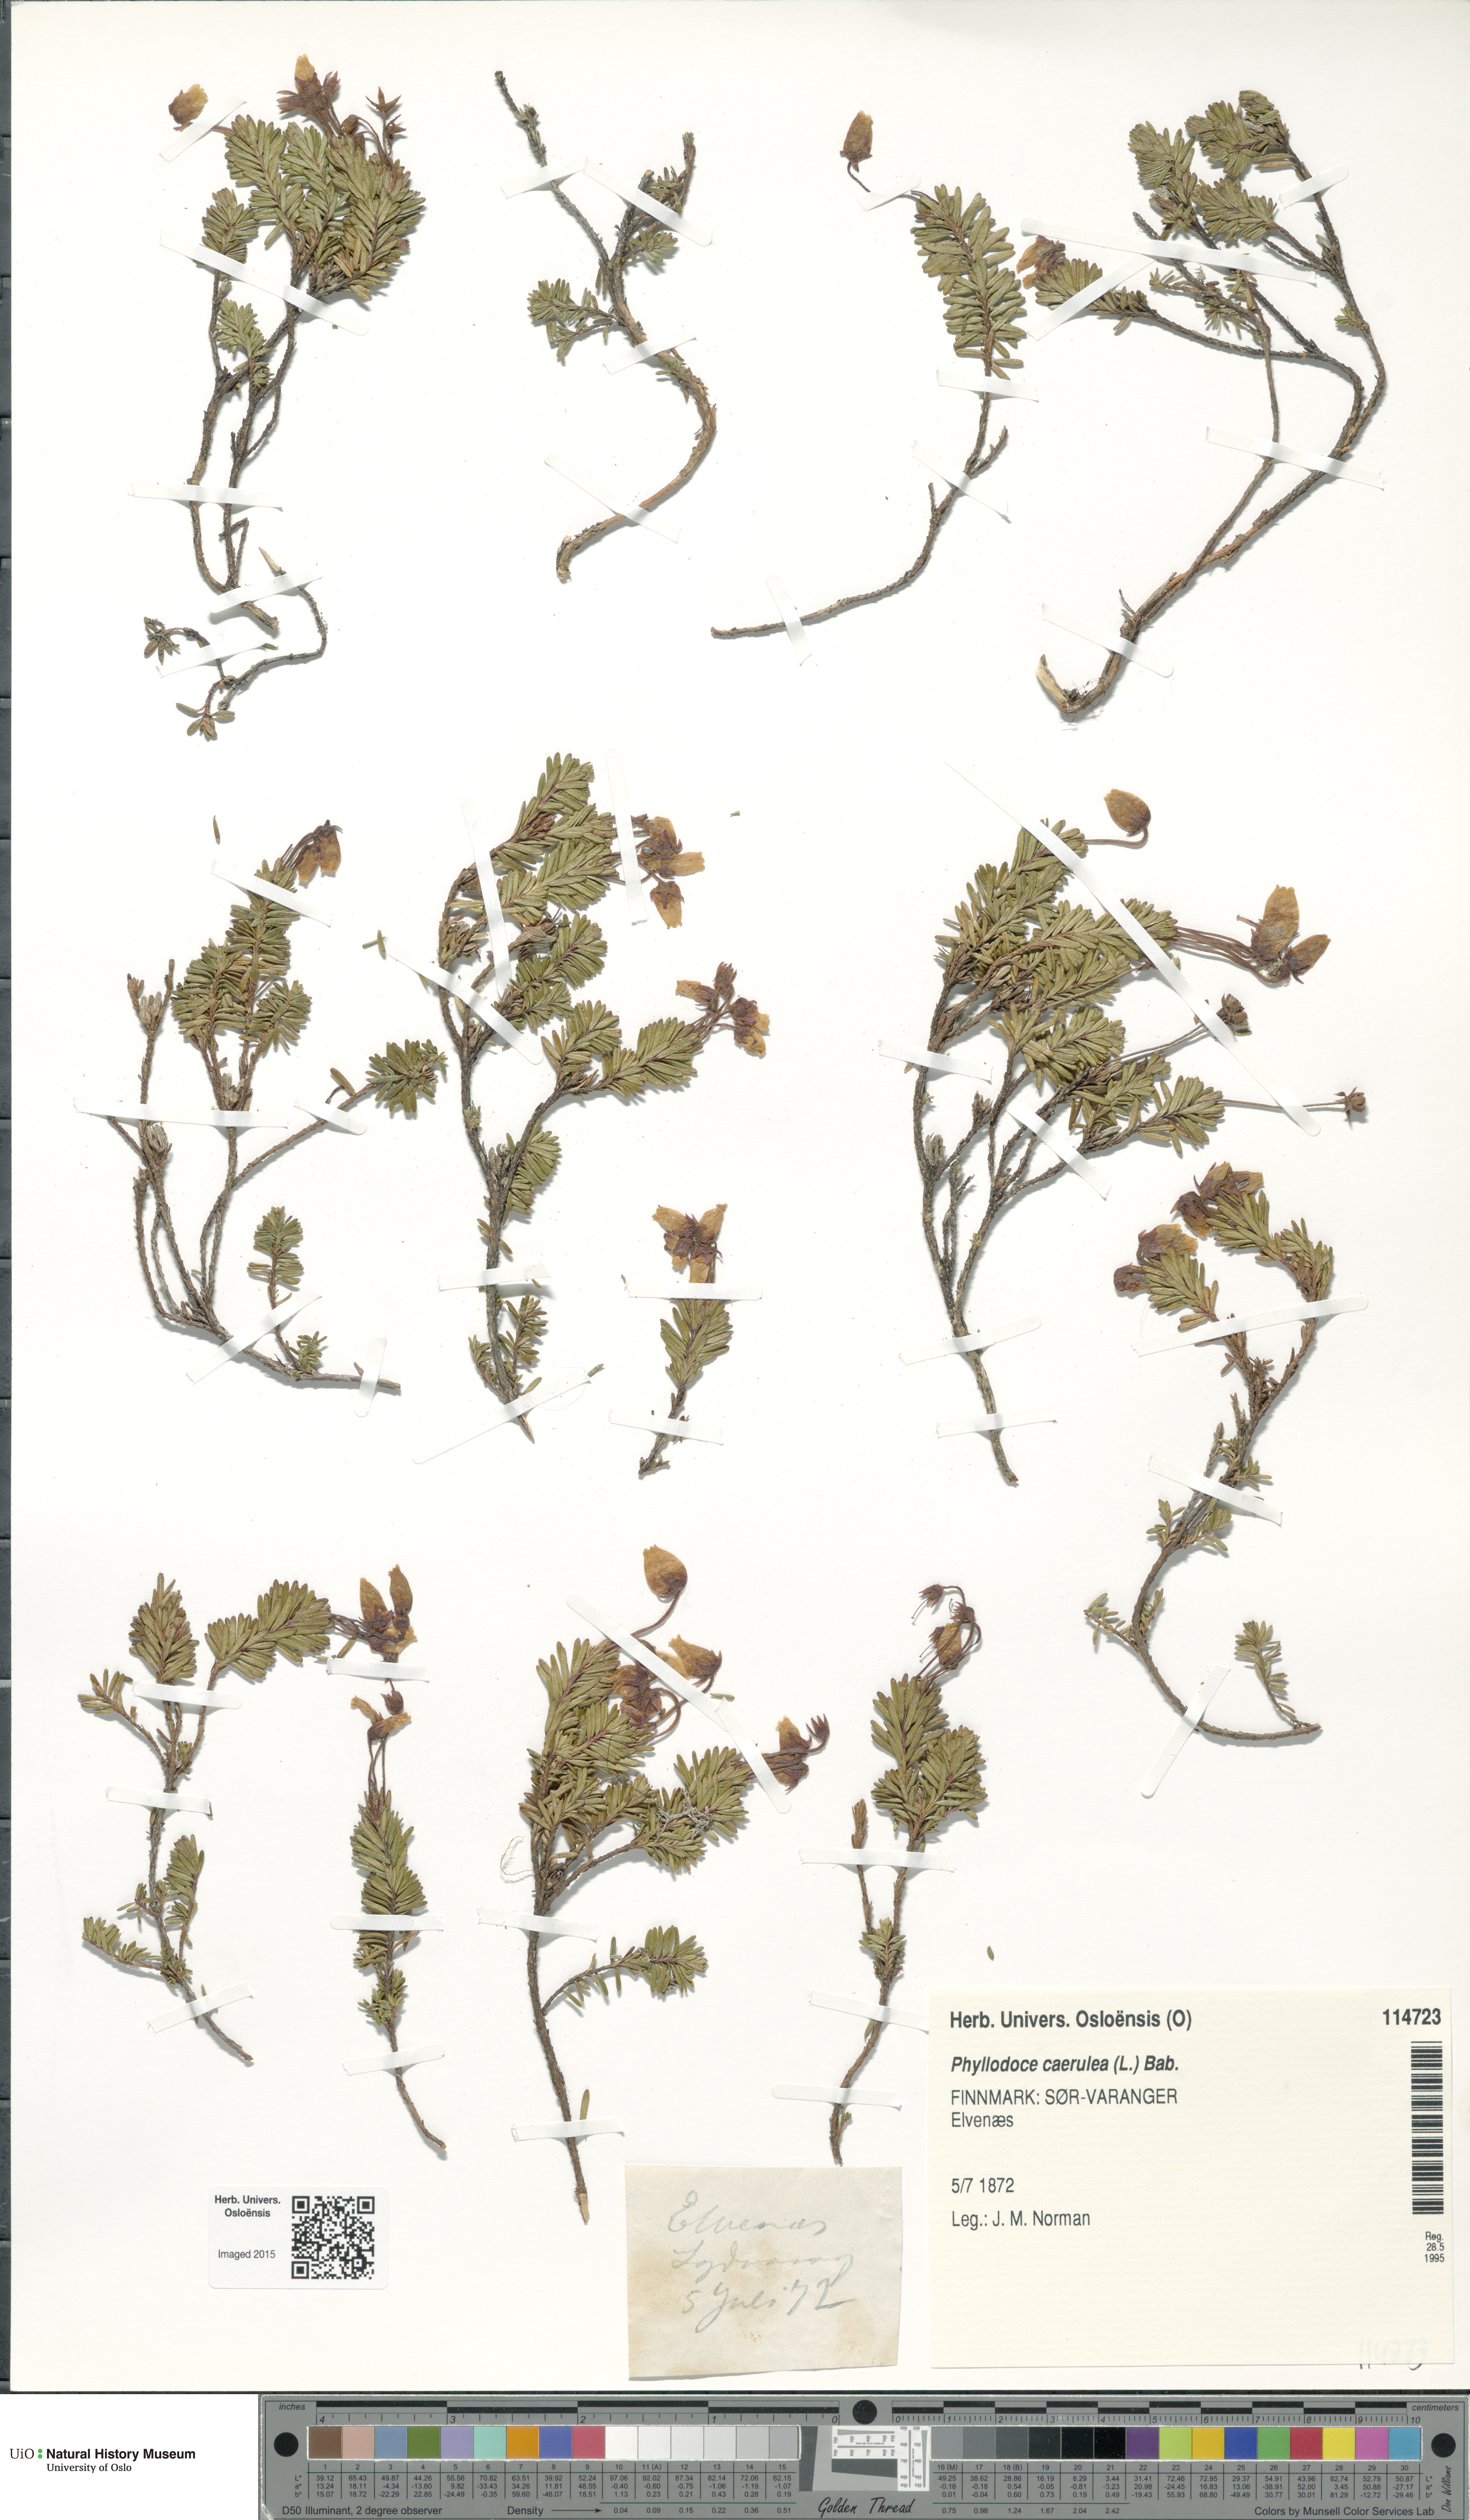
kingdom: Plantae
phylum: Tracheophyta
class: Magnoliopsida
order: Ericales
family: Ericaceae
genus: Phyllodoce
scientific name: Phyllodoce caerulea
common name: Blue heath
